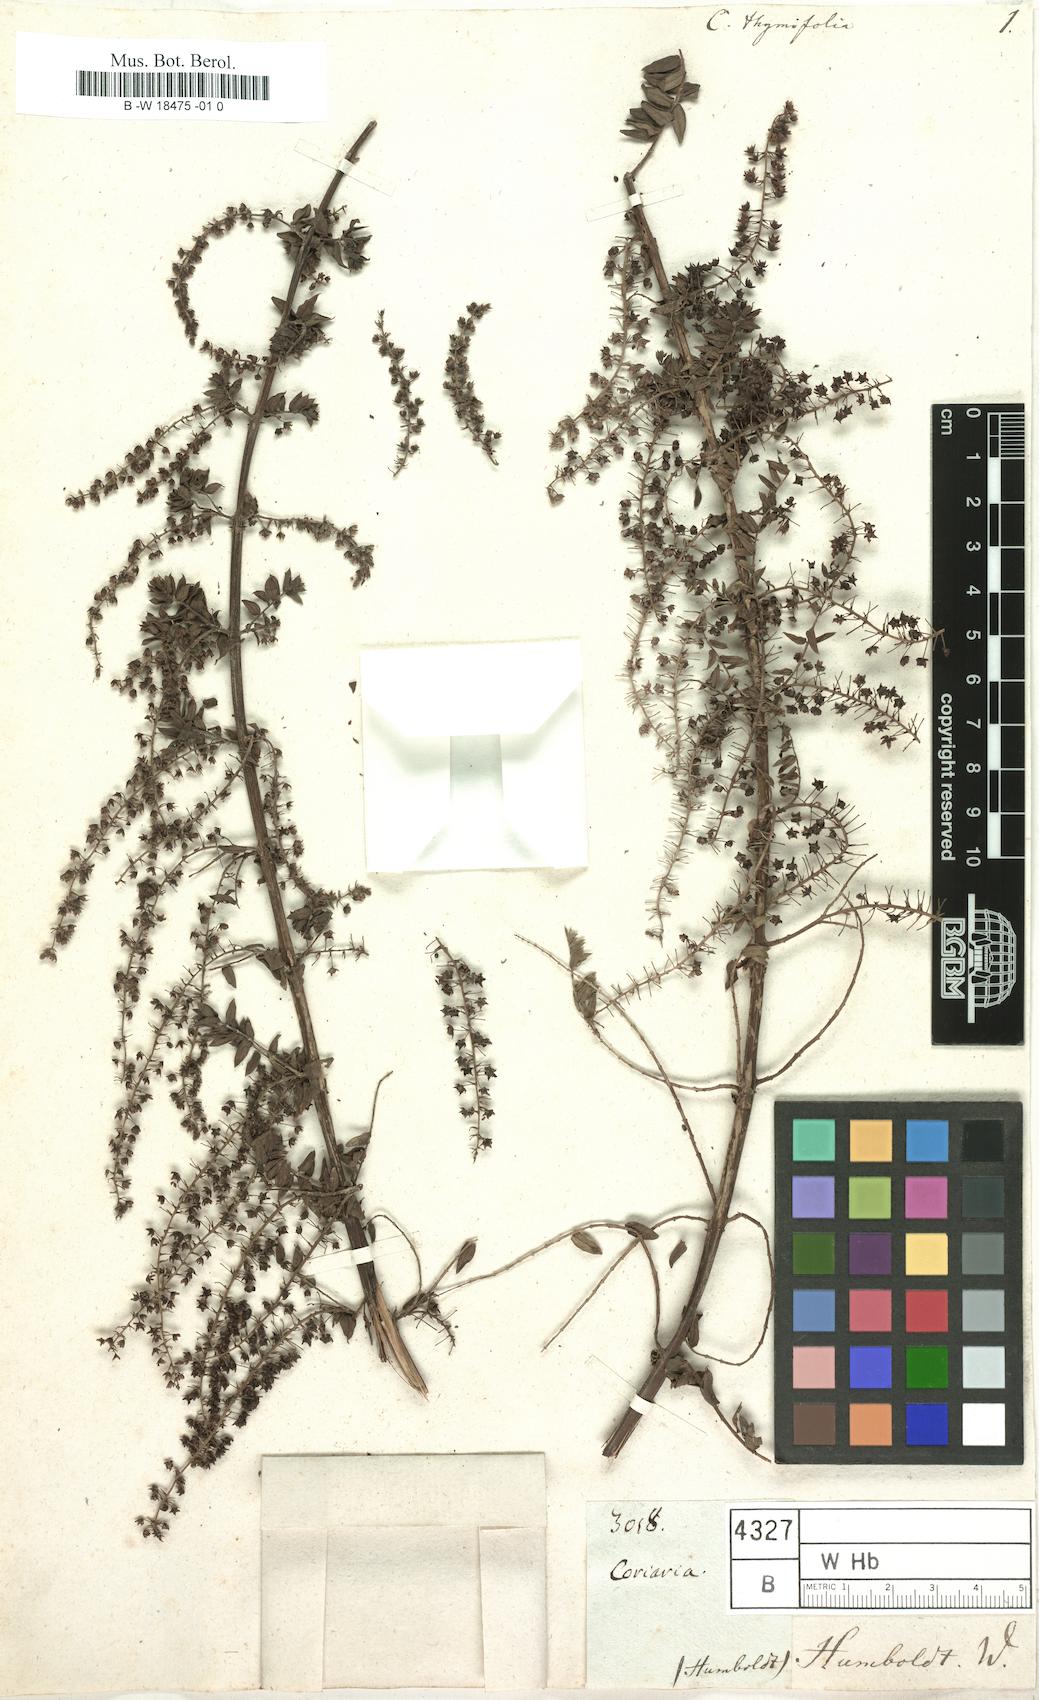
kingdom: Plantae
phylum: Tracheophyta
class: Magnoliopsida
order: Cucurbitales
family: Coriariaceae
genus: Coriaria
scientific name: Coriaria microphylla
